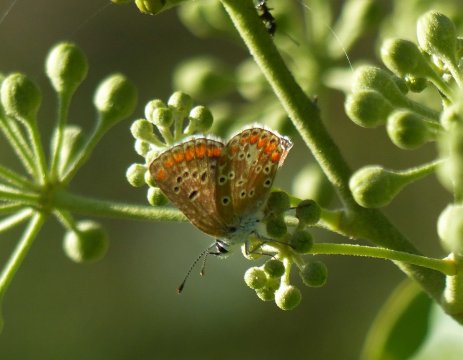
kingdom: Animalia
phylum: Arthropoda
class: Insecta
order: Lepidoptera
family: Lycaenidae
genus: Aricia
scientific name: Aricia agestis
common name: Brown Argus
